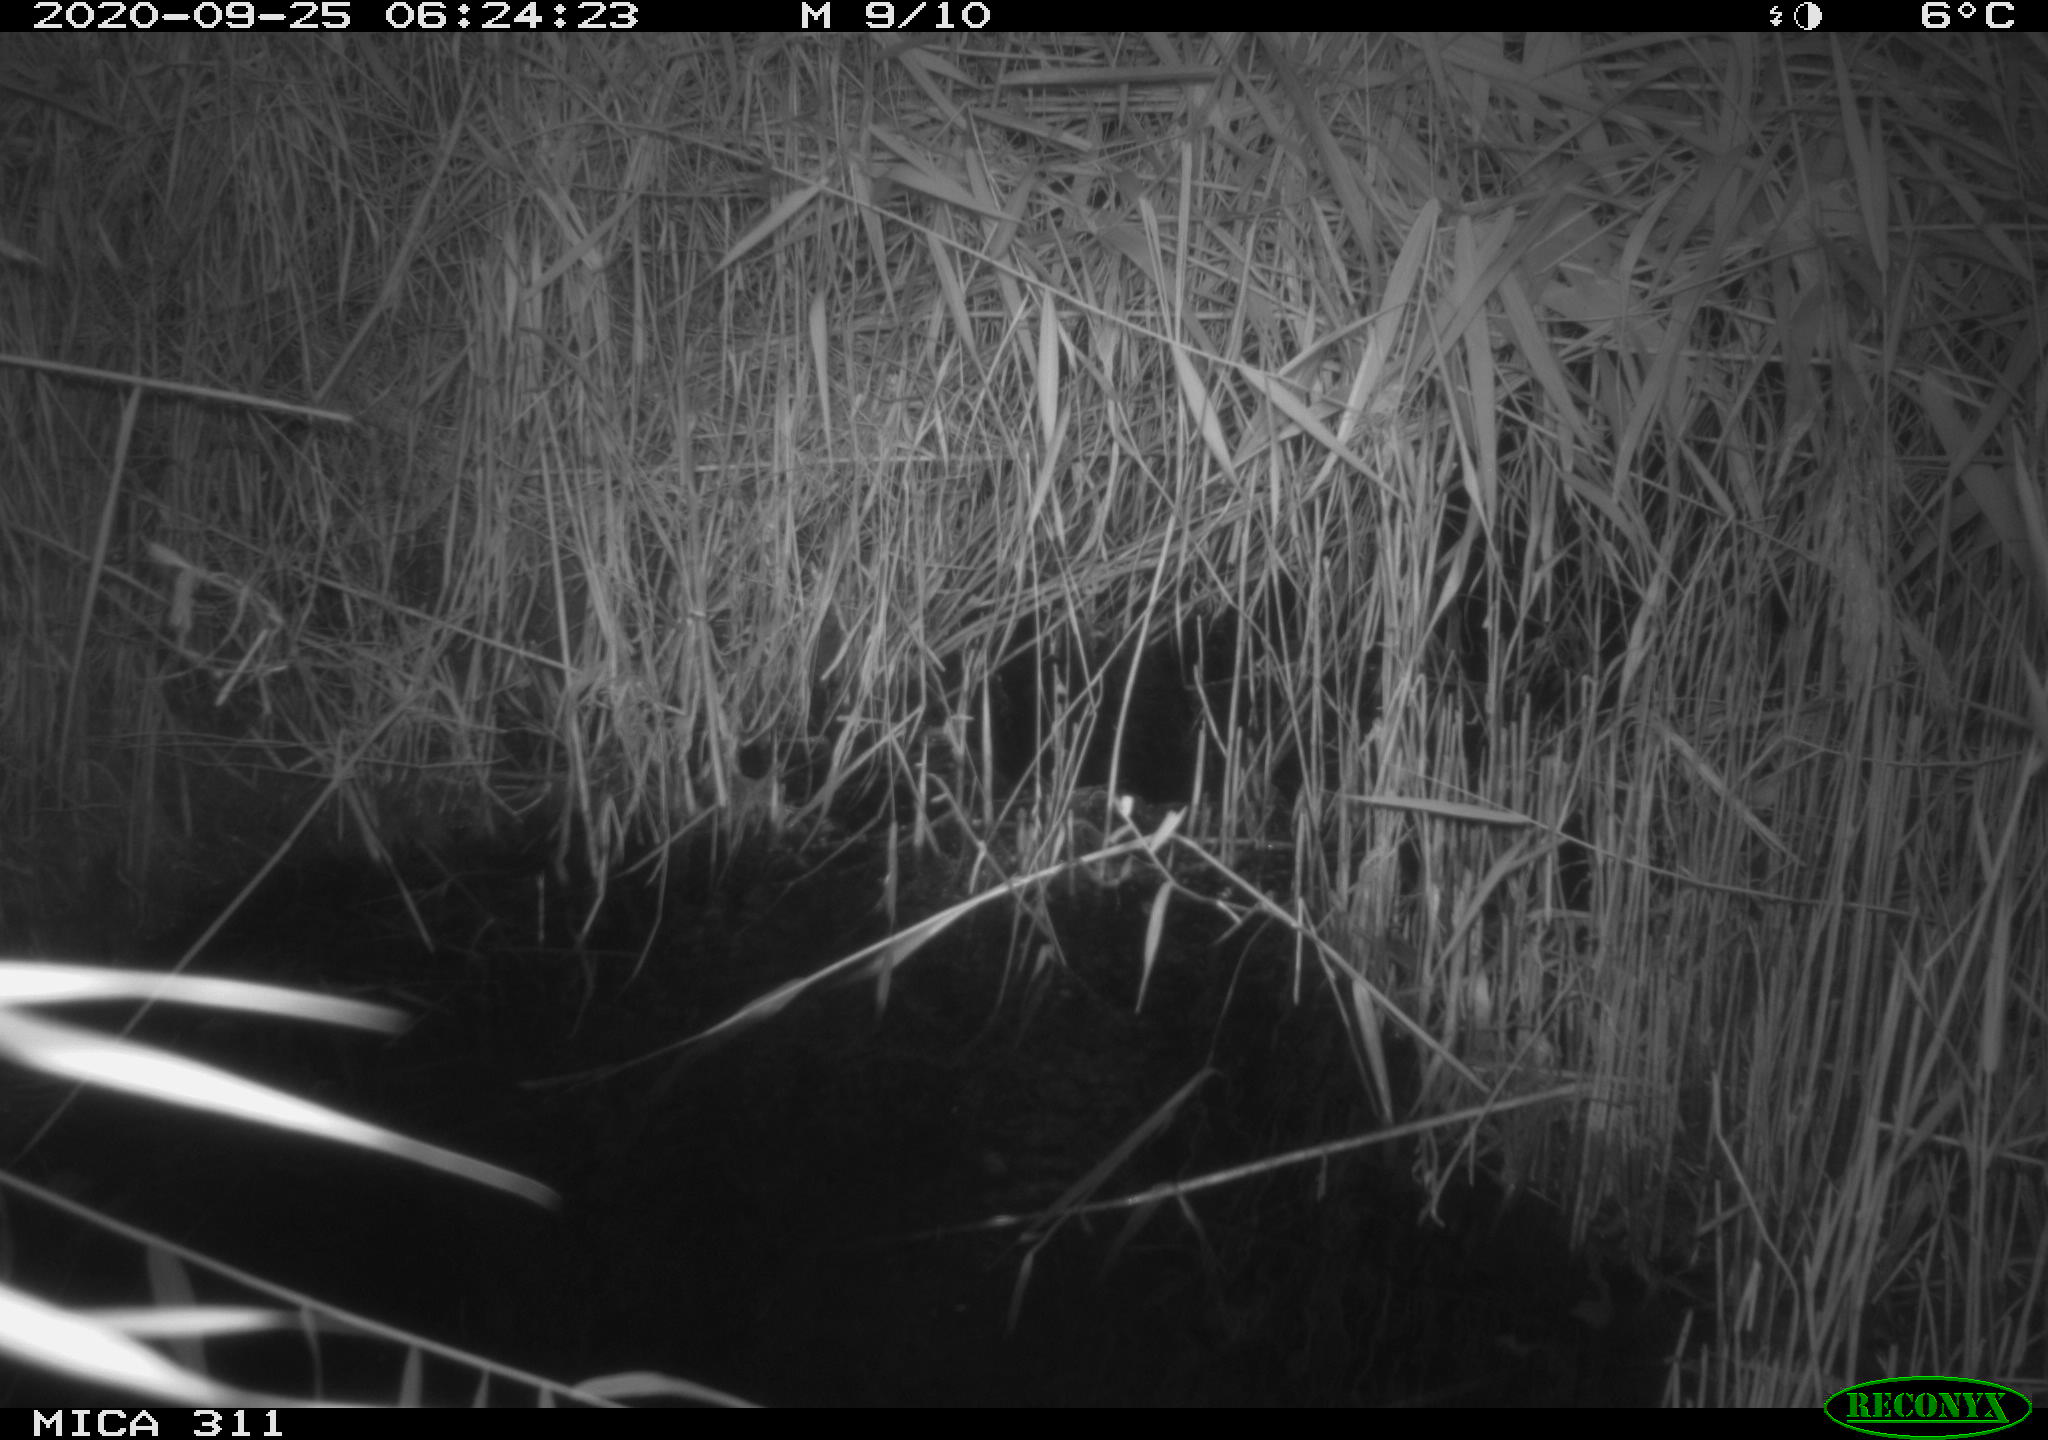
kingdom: Animalia
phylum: Chordata
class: Mammalia
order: Rodentia
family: Muridae
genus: Rattus
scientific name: Rattus norvegicus
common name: Brown rat
